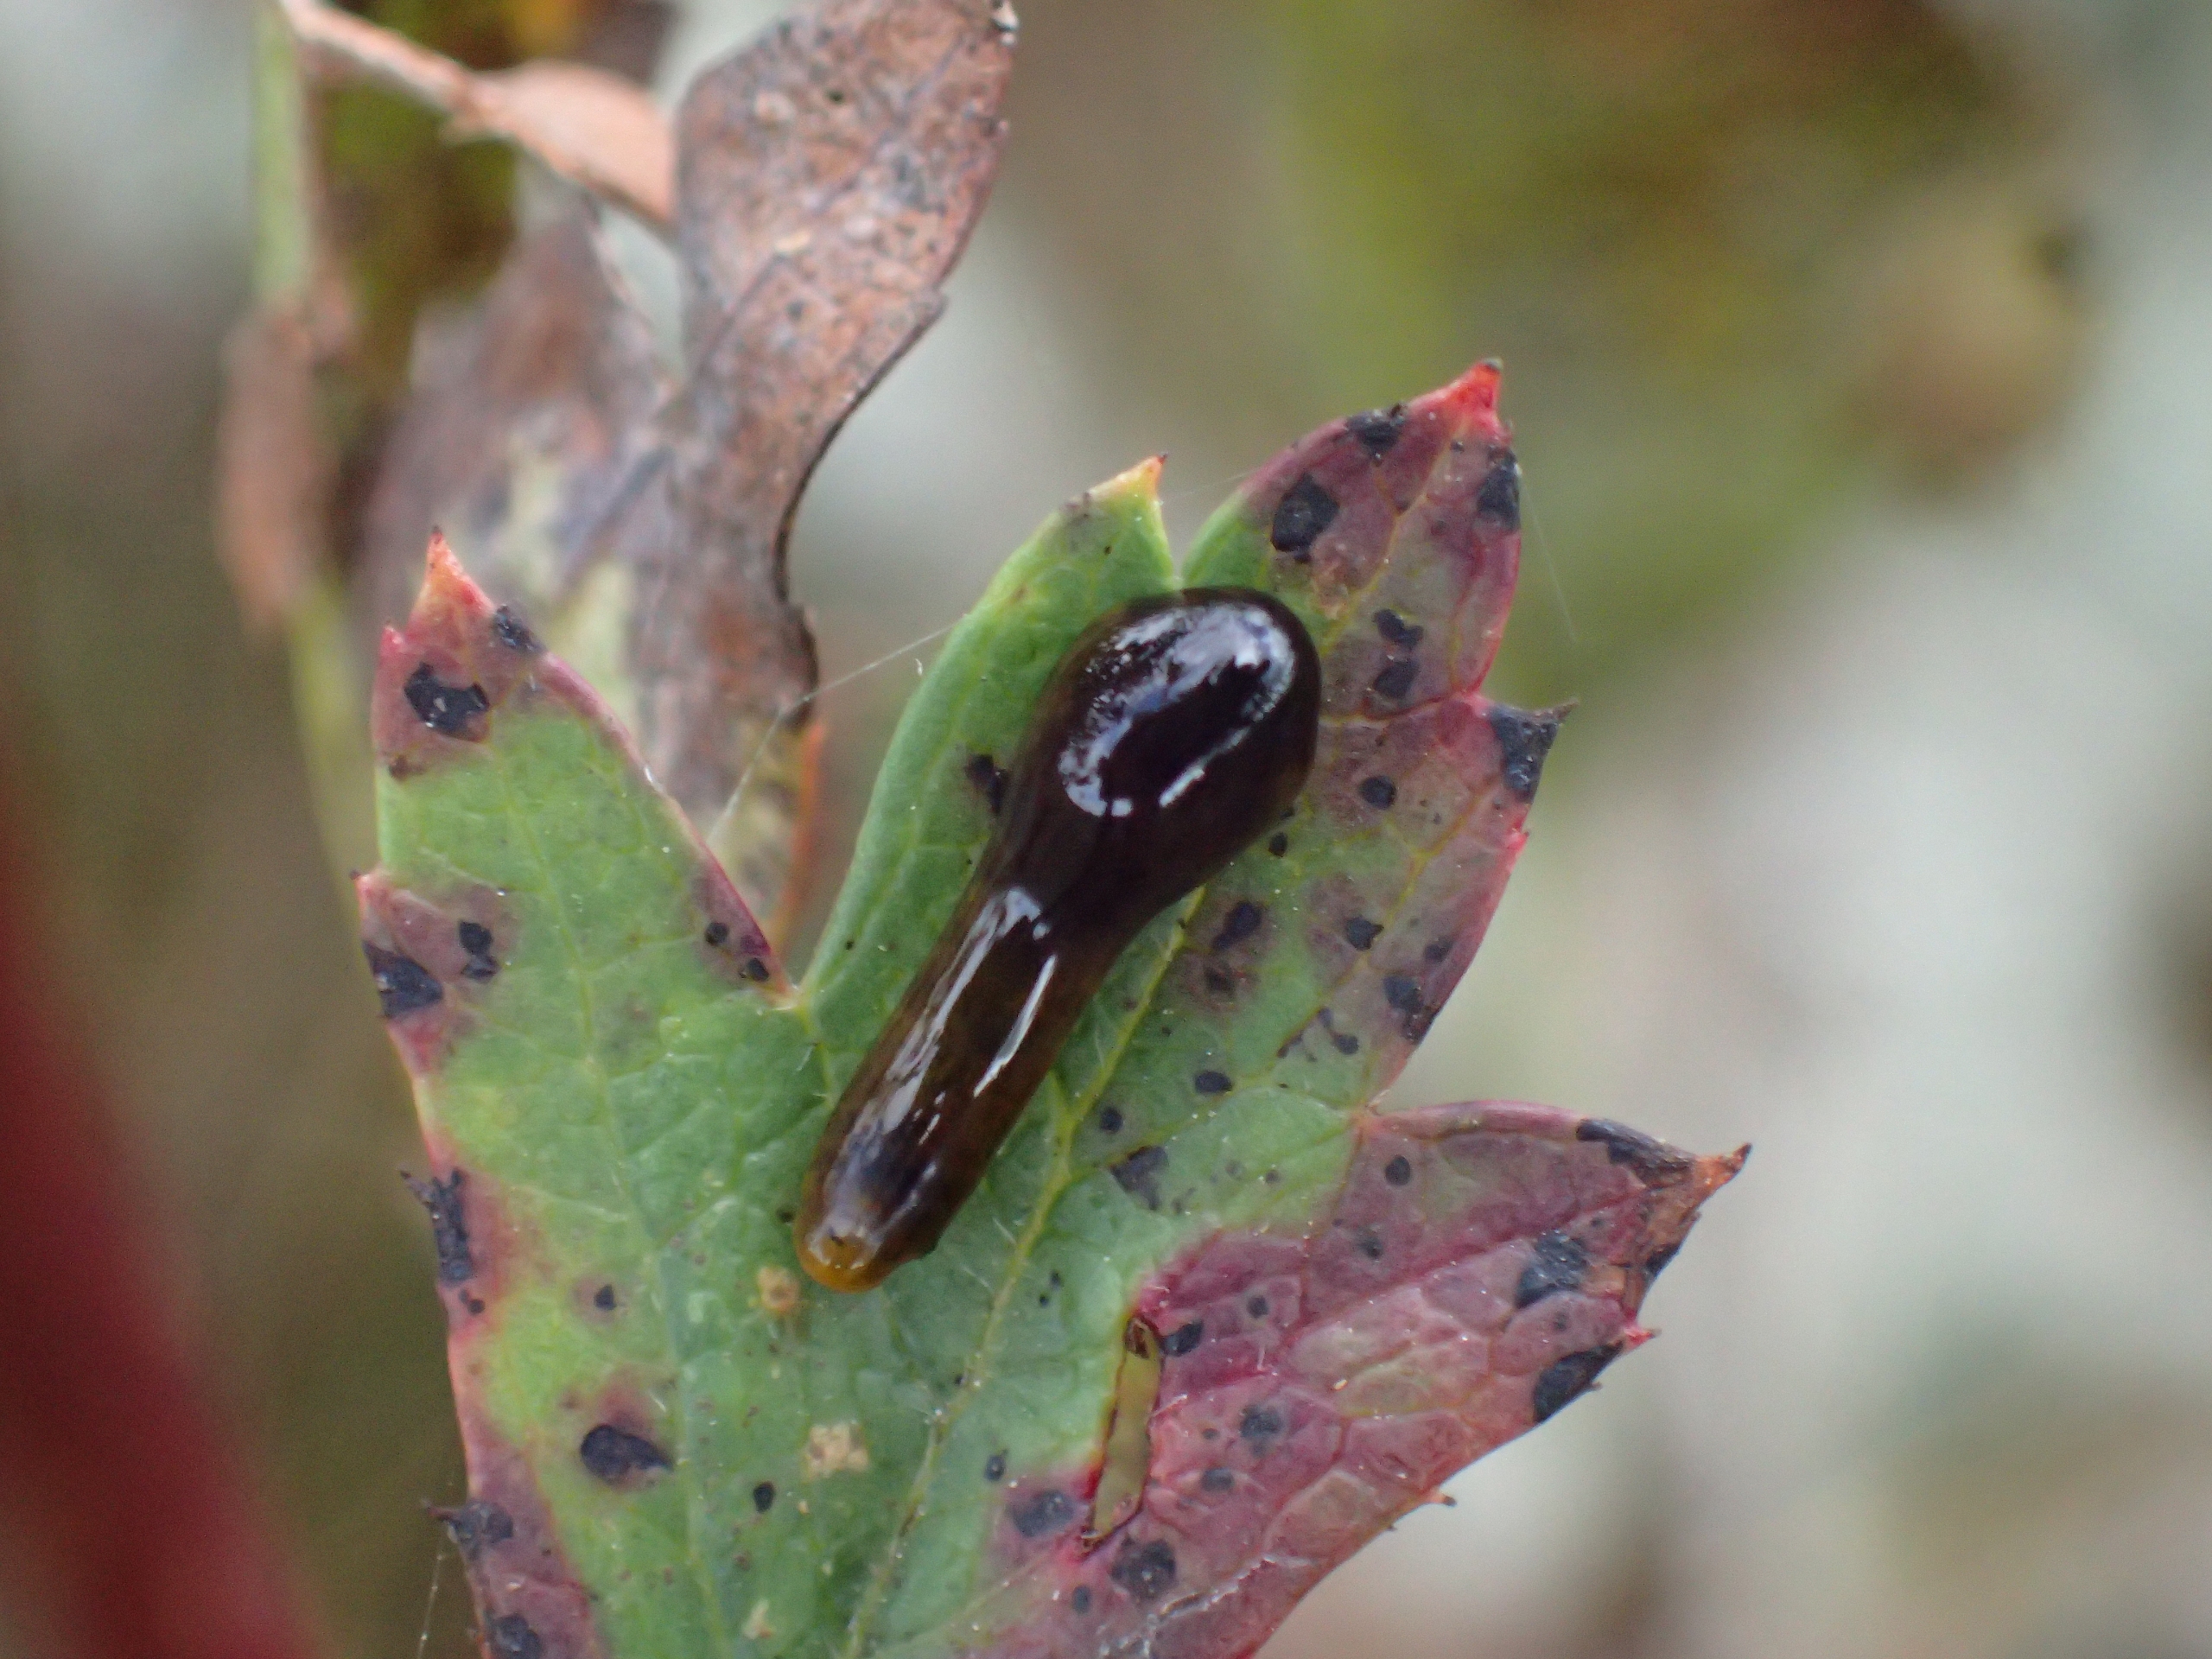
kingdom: Animalia
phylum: Arthropoda
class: Insecta
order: Hymenoptera
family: Tenthredinidae
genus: Caliroa
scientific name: Caliroa cerasi
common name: Frugttræbladhveps
